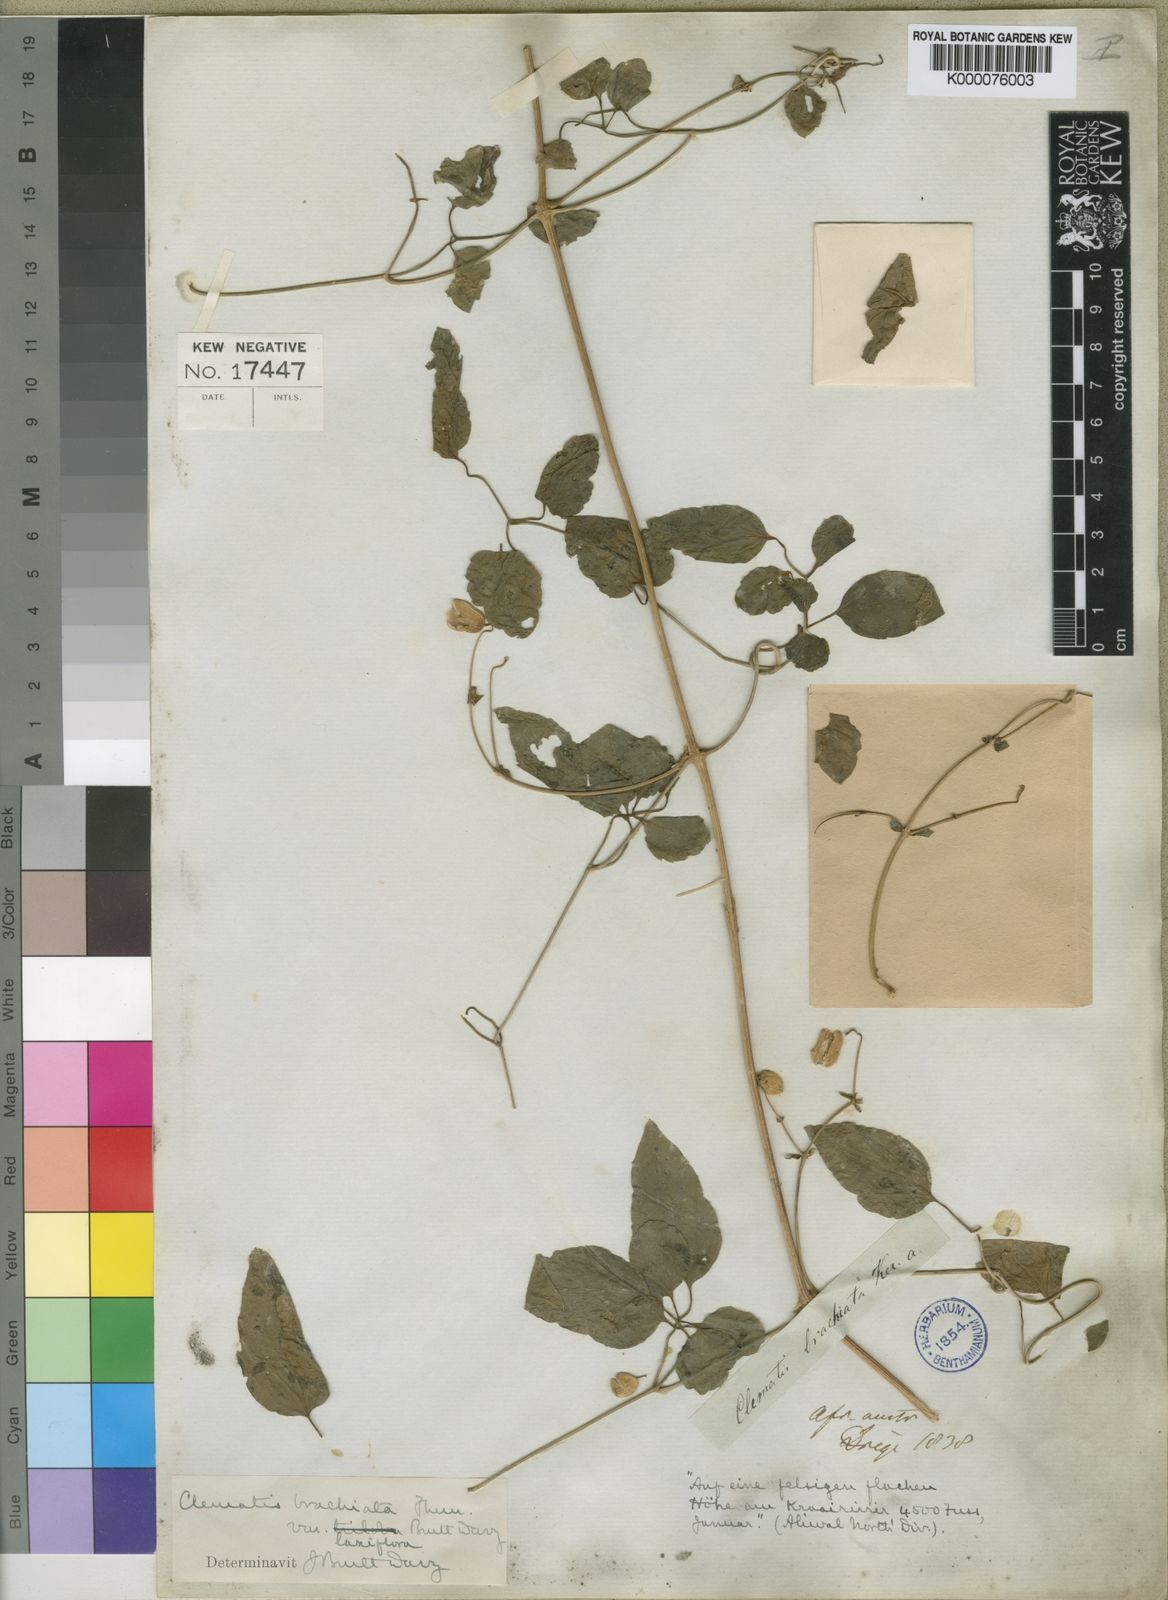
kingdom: Plantae
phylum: Tracheophyta
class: Magnoliopsida
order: Ranunculales
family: Ranunculaceae
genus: Clematis
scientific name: Clematis brachiata
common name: Traveler's-joy
